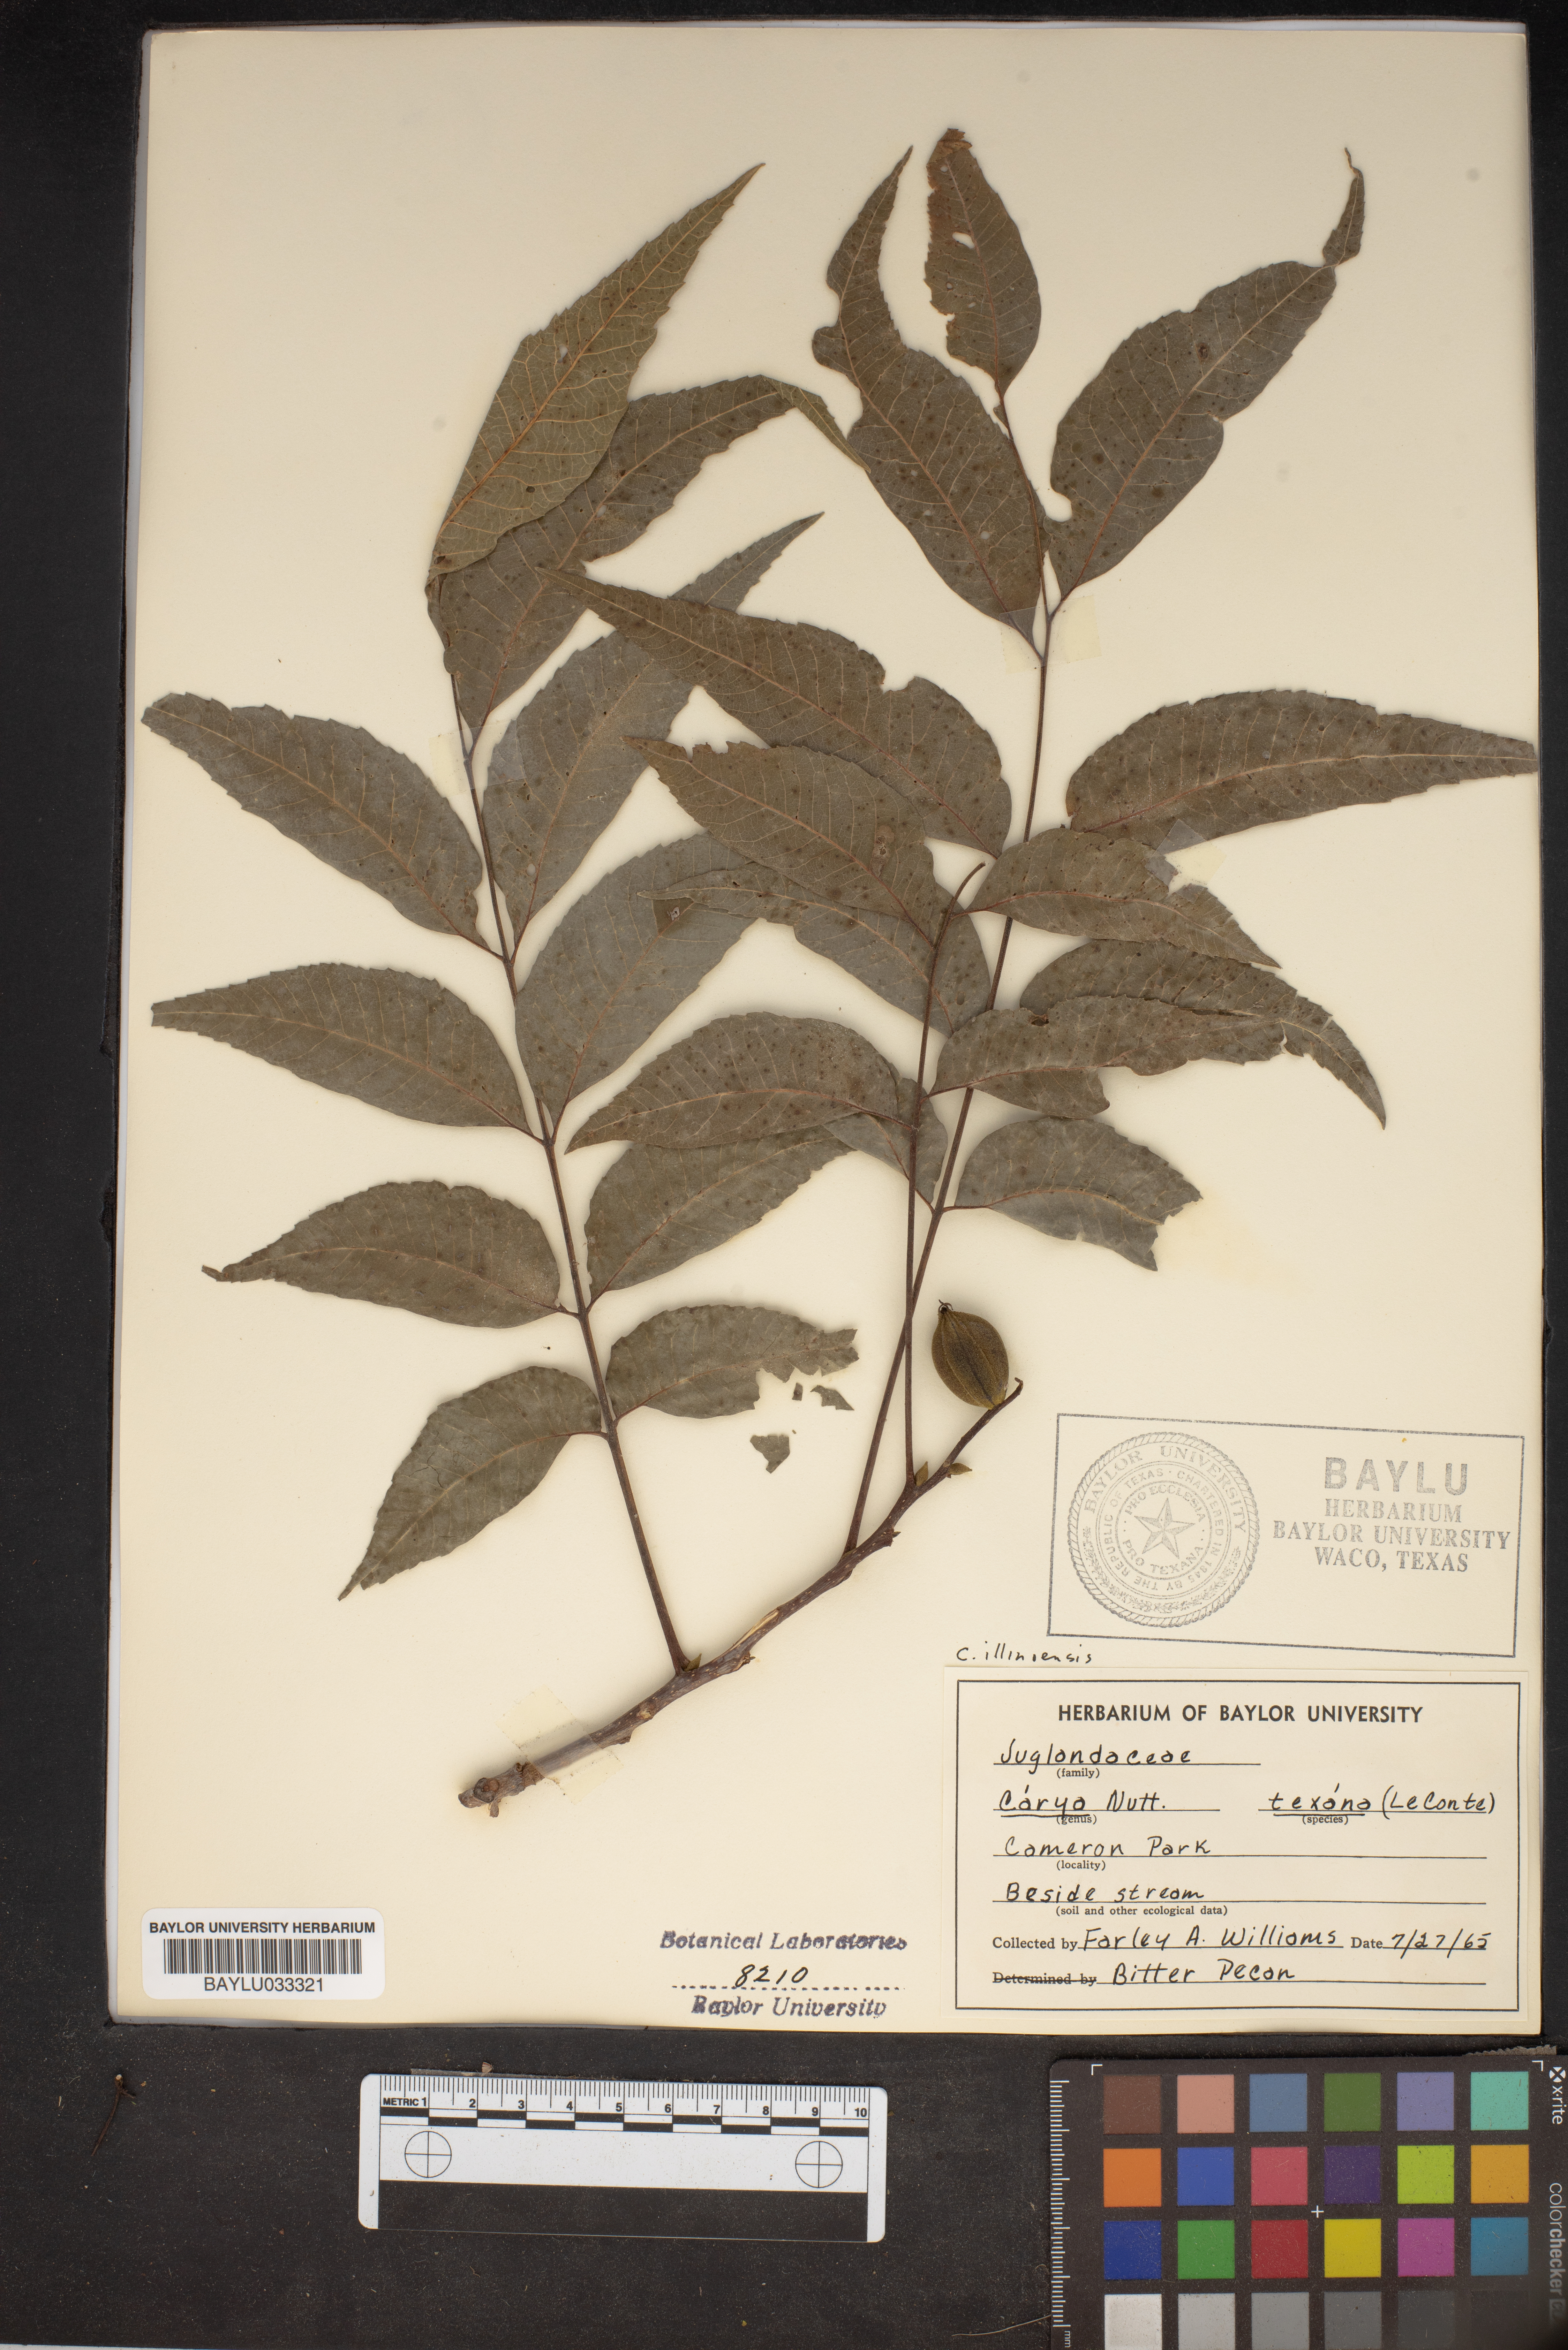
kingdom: Plantae
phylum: Tracheophyta
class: Magnoliopsida
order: Fagales
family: Juglandaceae
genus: Carya
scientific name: Carya texana
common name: Black hickory
